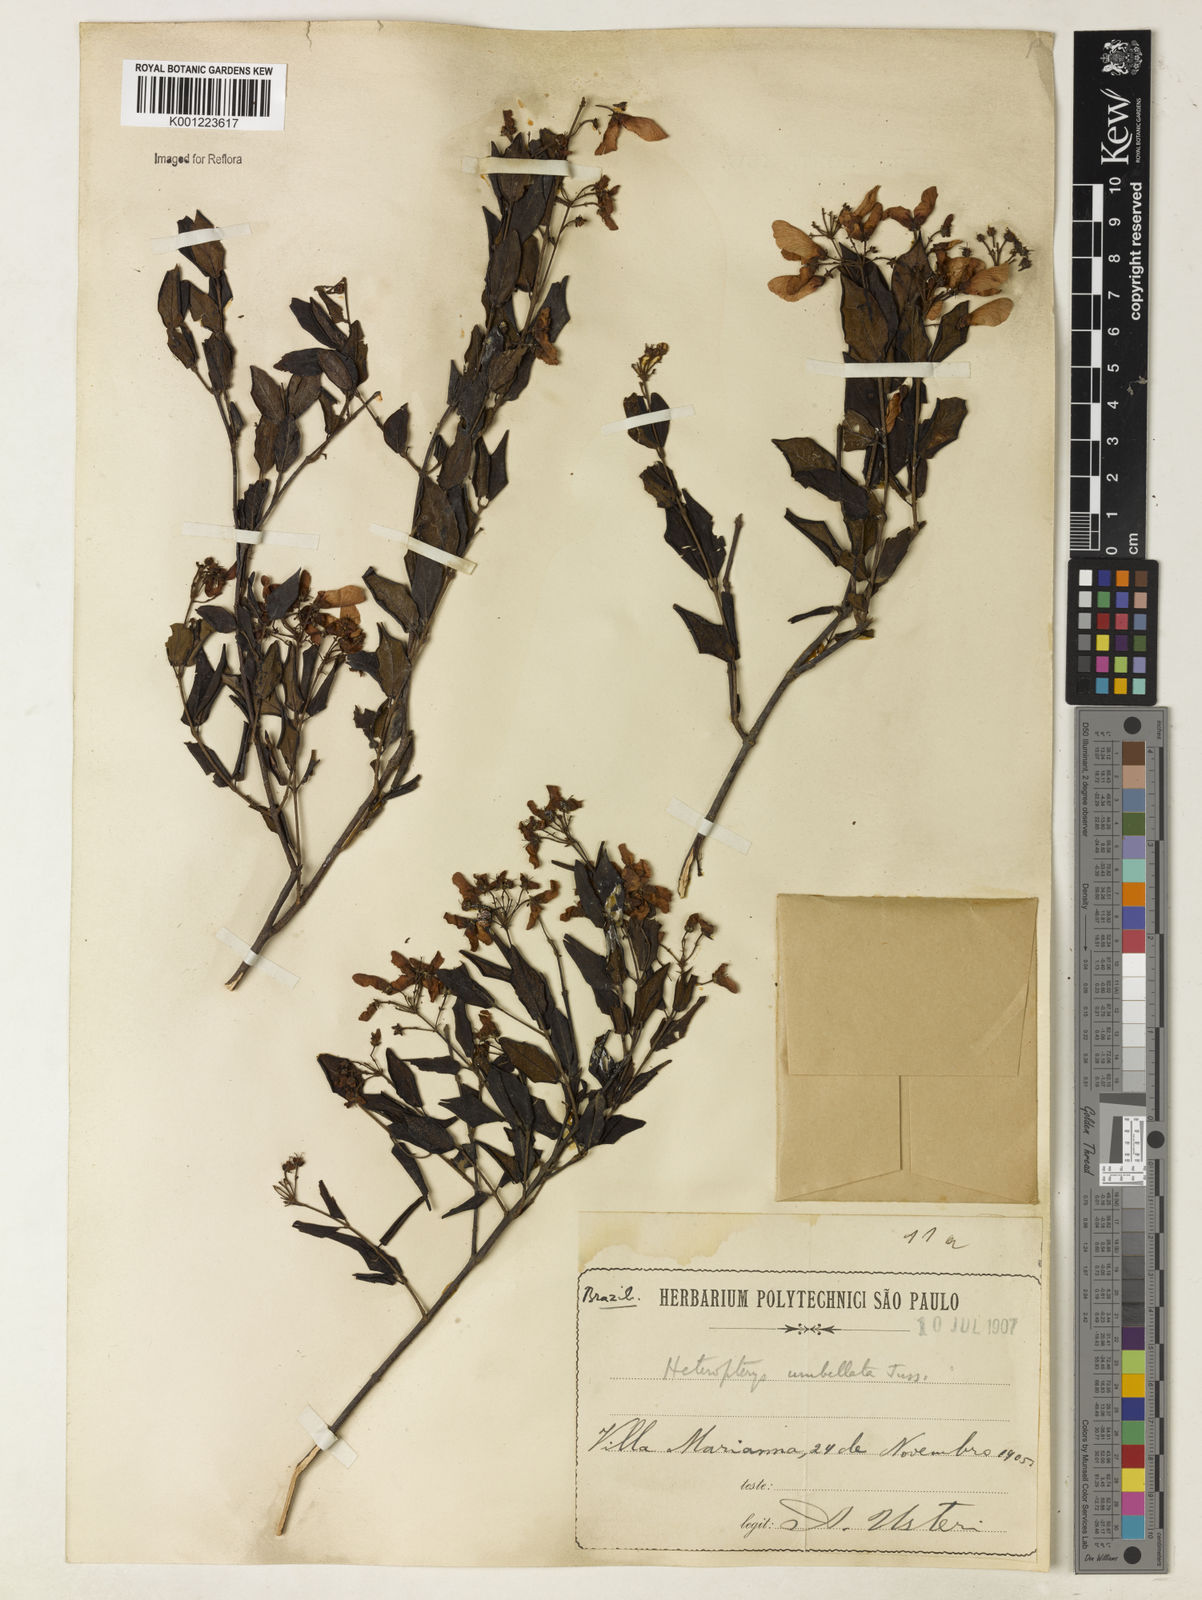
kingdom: Plantae
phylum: Tracheophyta
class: Magnoliopsida
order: Malpighiales
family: Malpighiaceae
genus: Heteropterys
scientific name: Heteropterys umbellata
